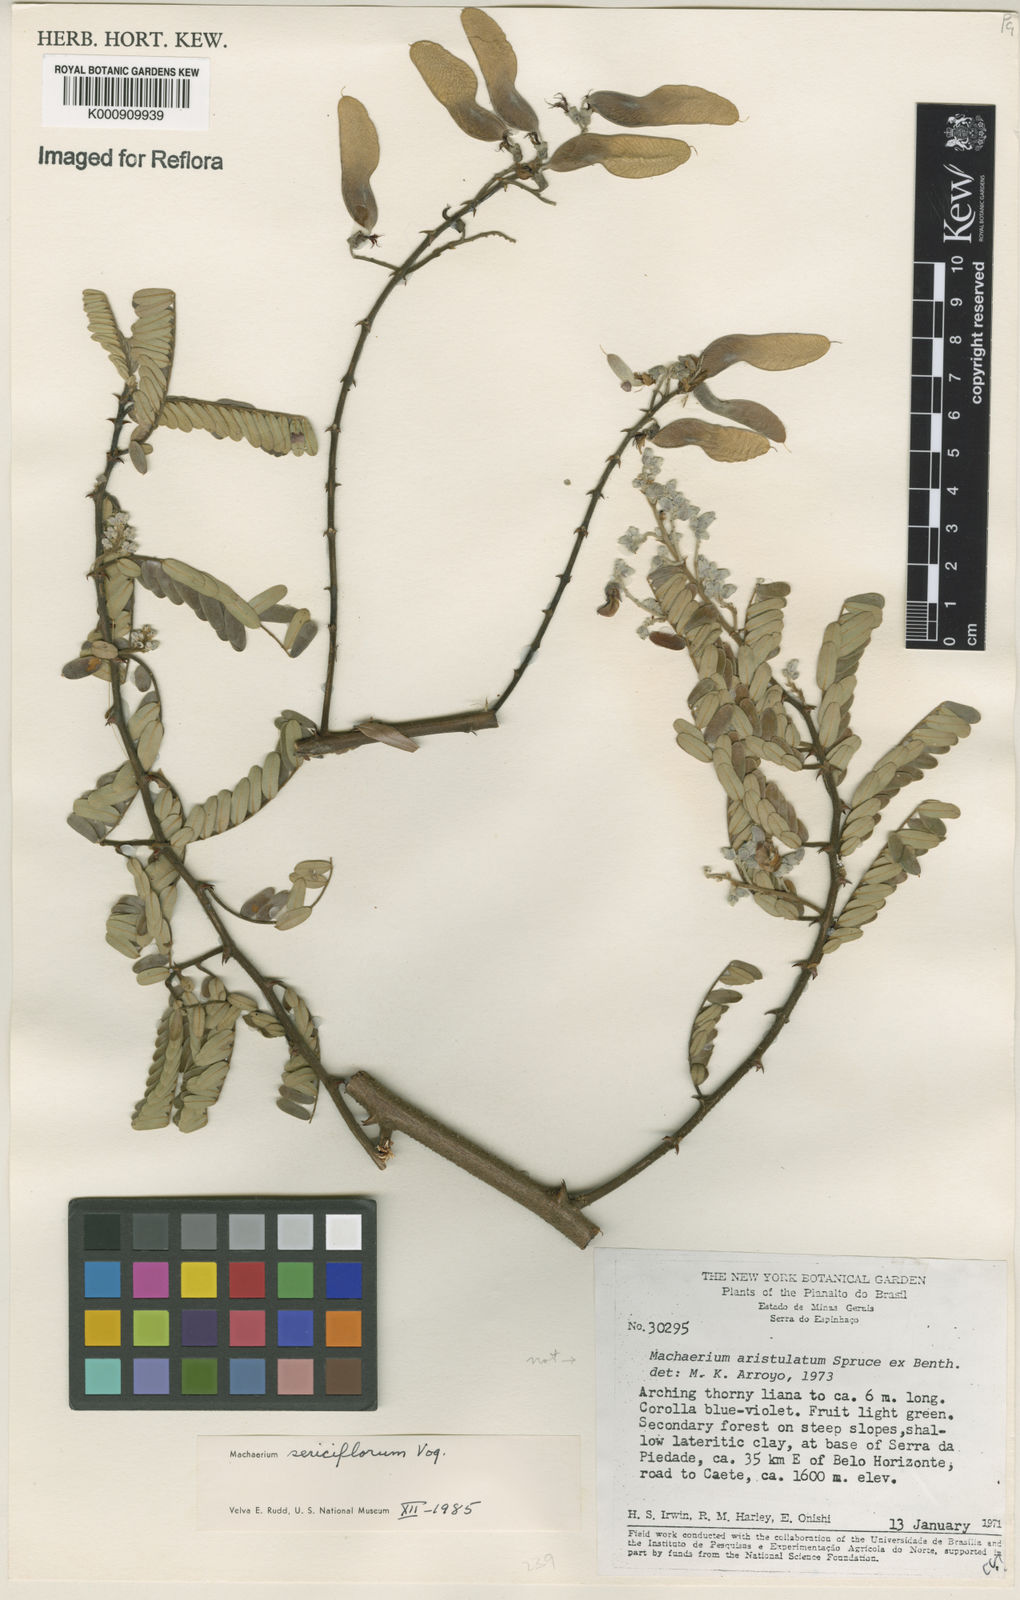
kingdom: Plantae
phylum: Tracheophyta
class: Magnoliopsida
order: Fabales
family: Fabaceae
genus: Machaerium
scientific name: Machaerium scleroxylon
